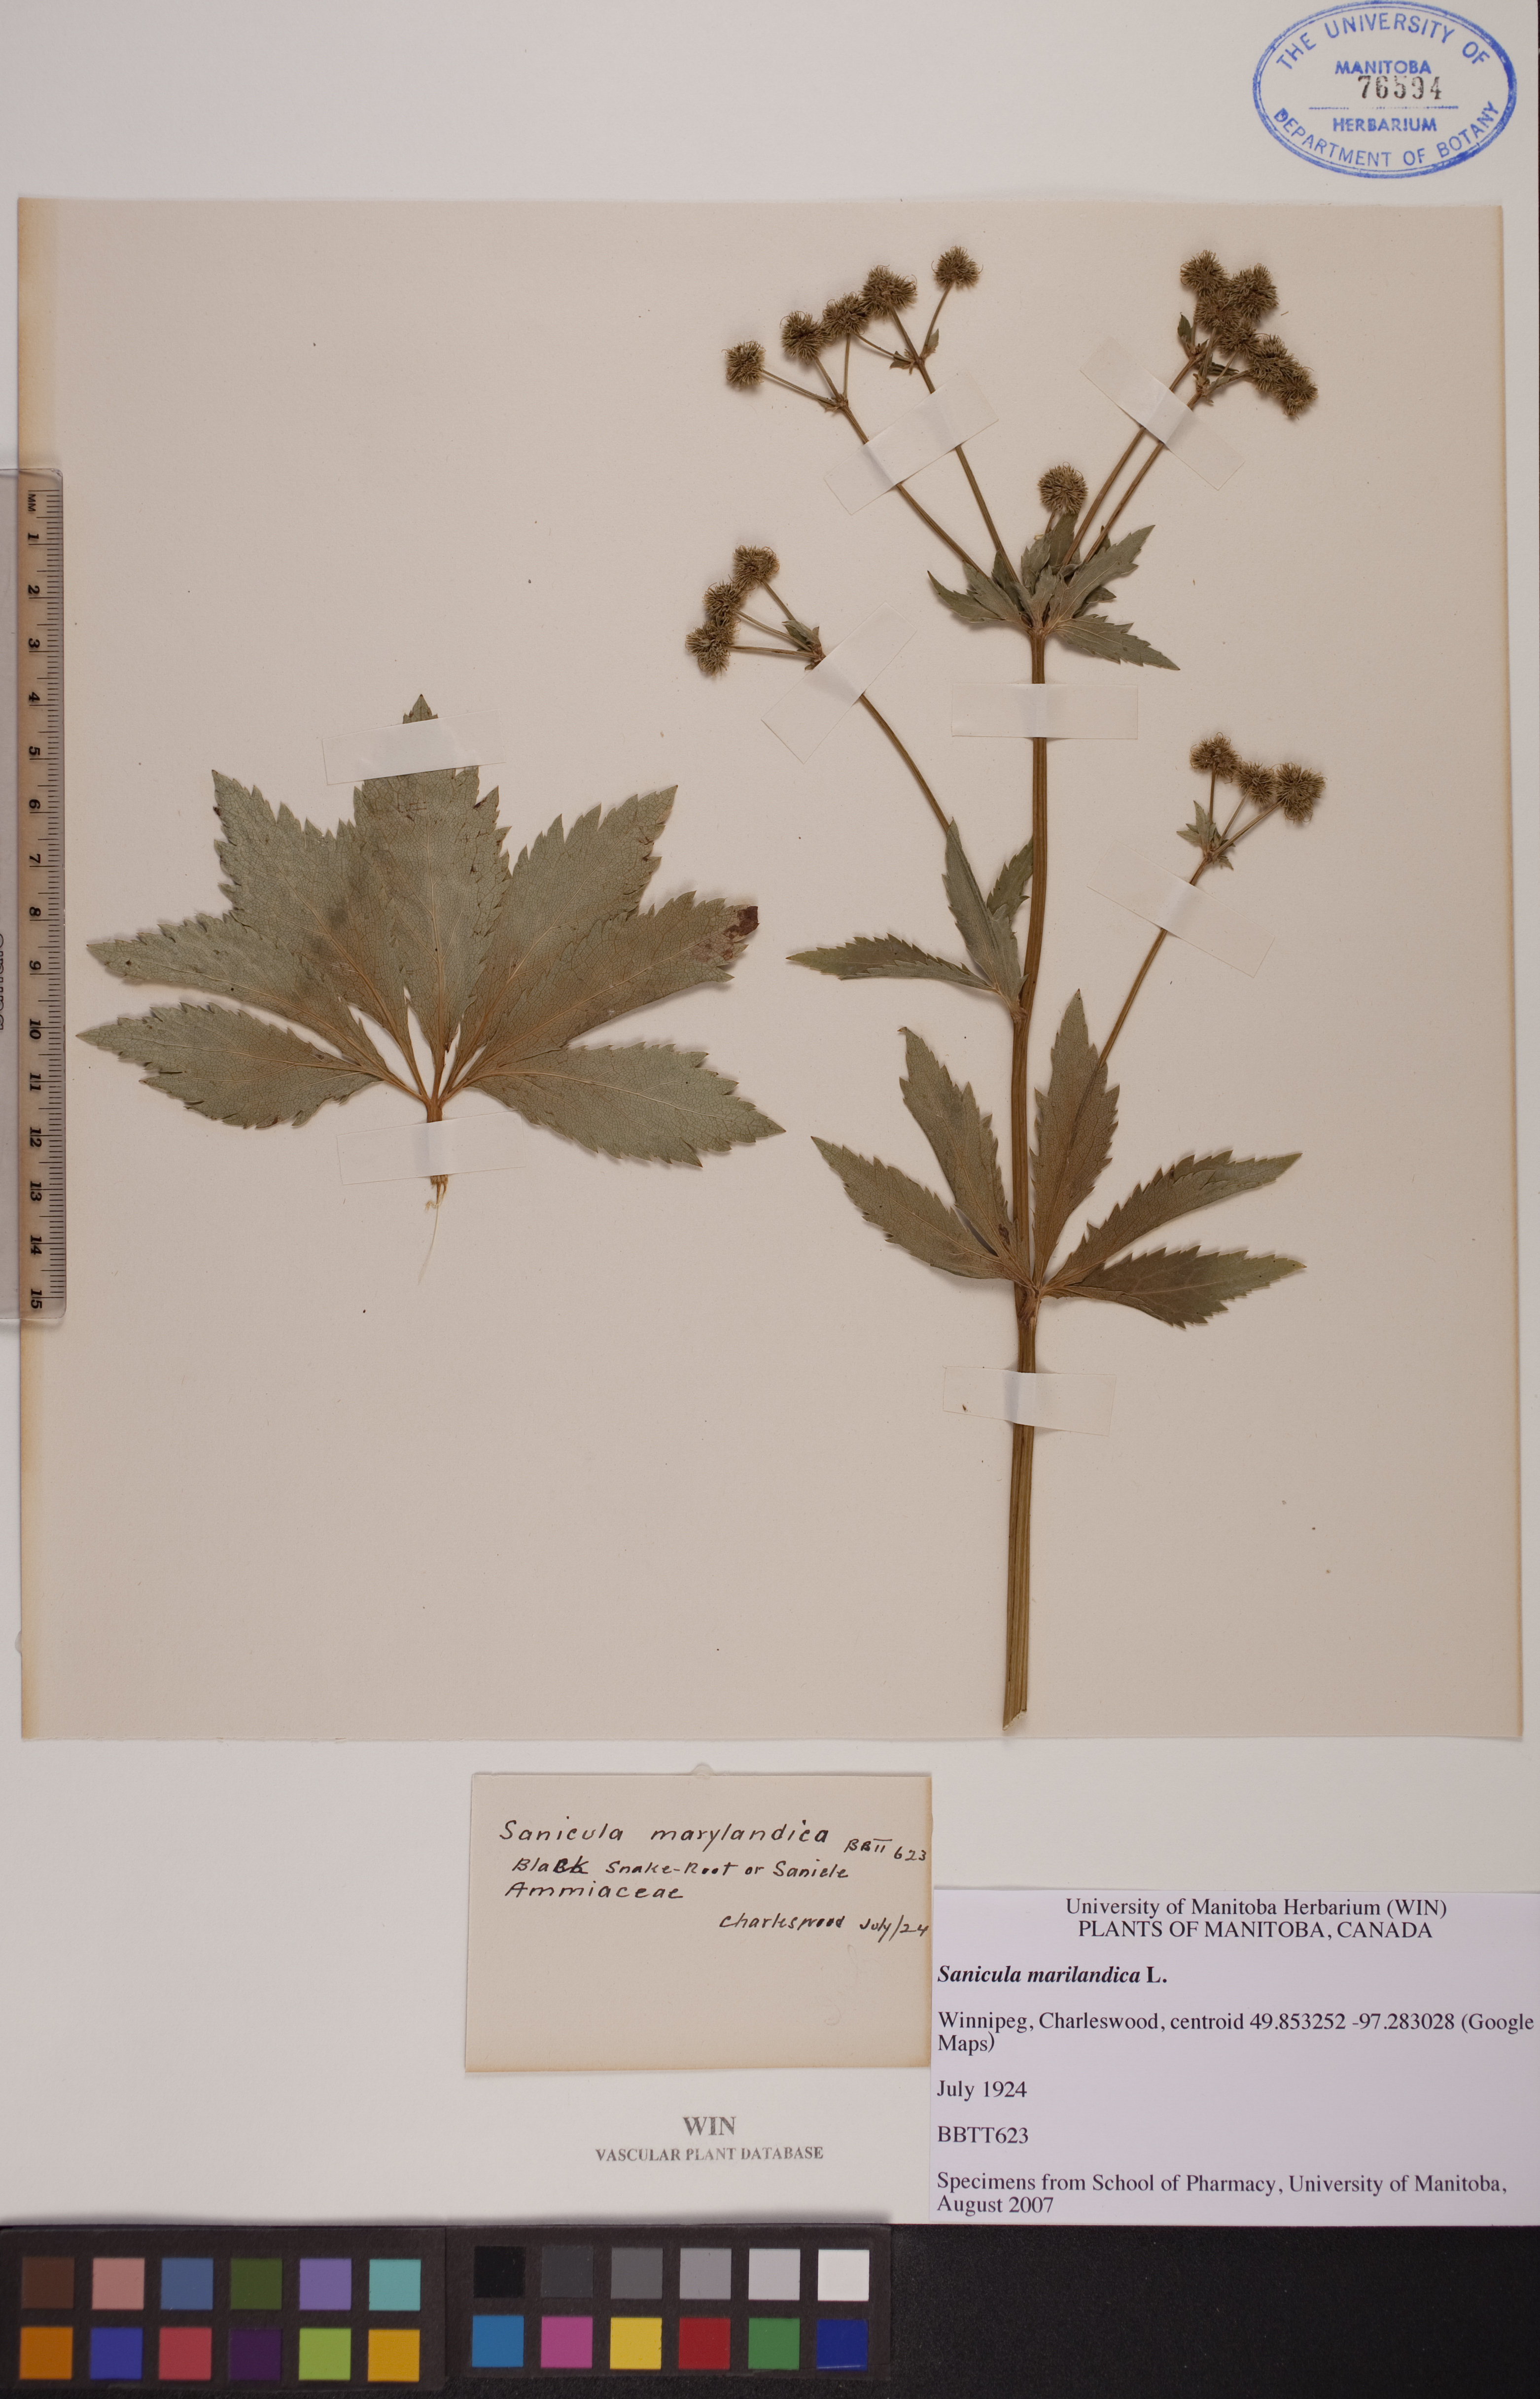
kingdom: Plantae
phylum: Tracheophyta
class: Magnoliopsida
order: Apiales
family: Apiaceae
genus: Sanicula
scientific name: Sanicula marilandica
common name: Black snakeroot
